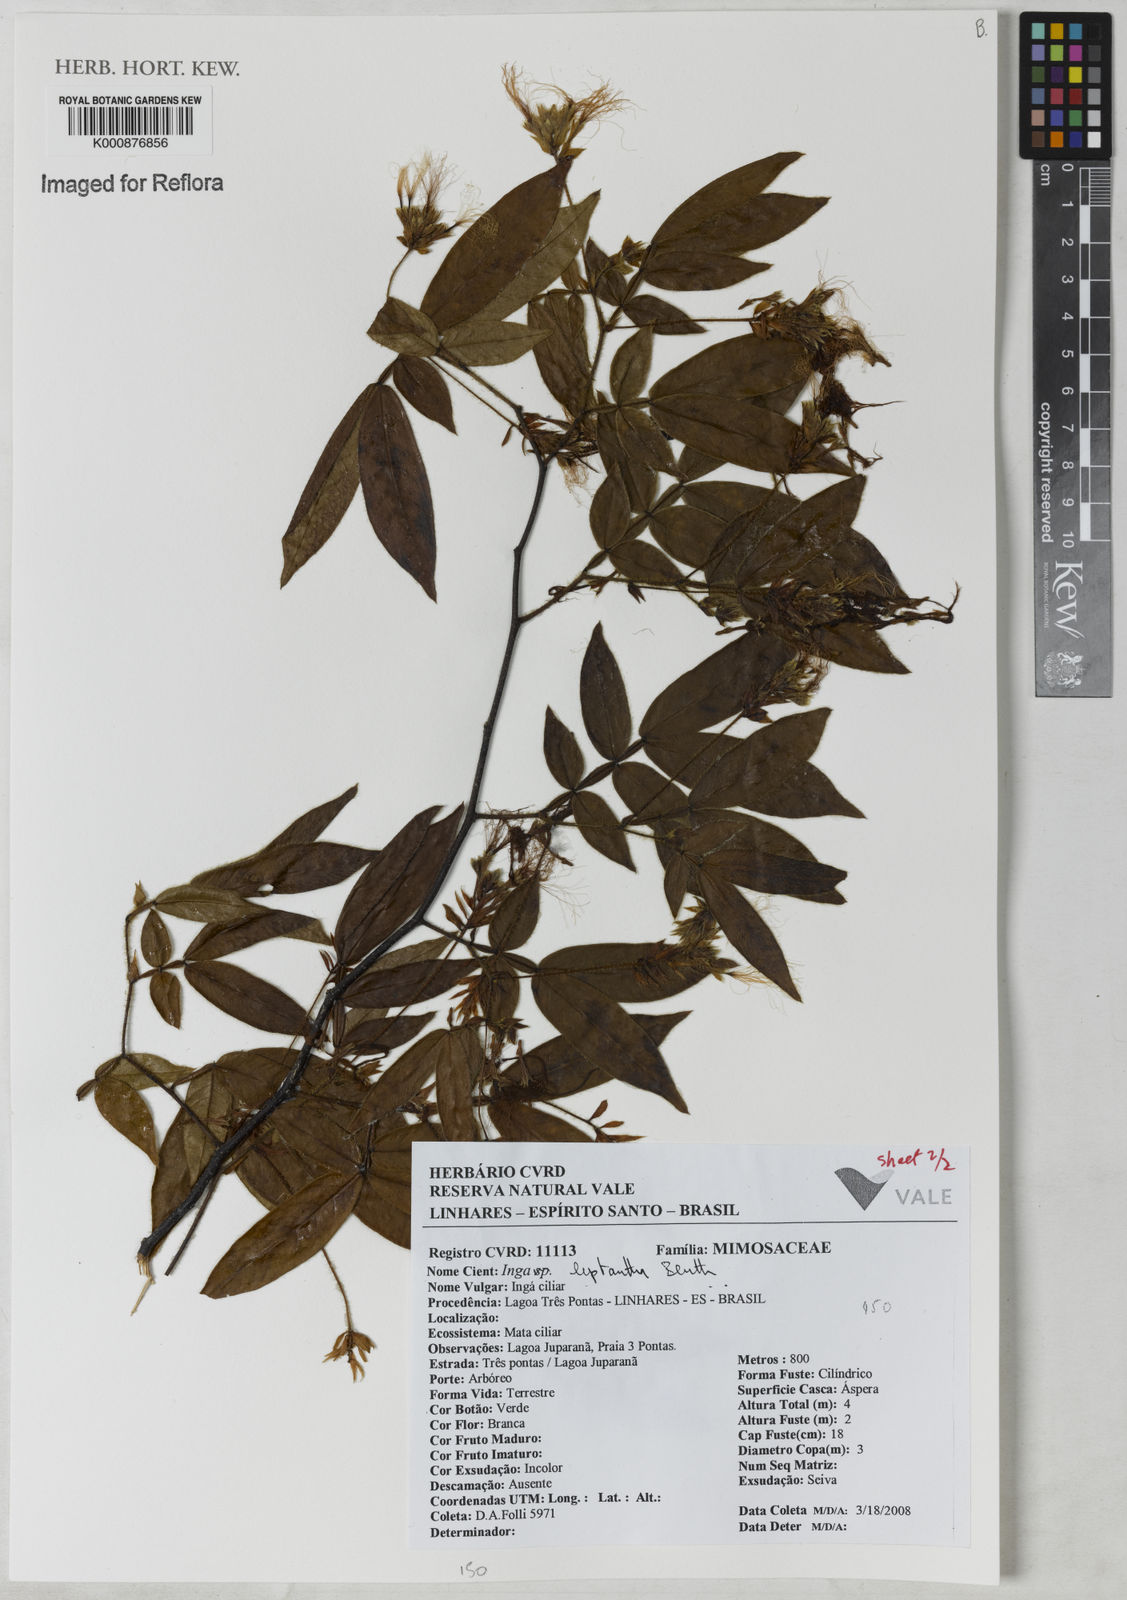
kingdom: Plantae
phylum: Tracheophyta
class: Magnoliopsida
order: Fabales
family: Fabaceae
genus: Inga
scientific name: Inga leptantha
